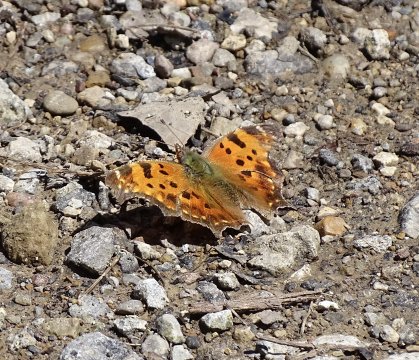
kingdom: Animalia
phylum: Arthropoda
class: Insecta
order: Lepidoptera
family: Nymphalidae
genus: Polygonia
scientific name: Polygonia comma
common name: Eastern Comma
